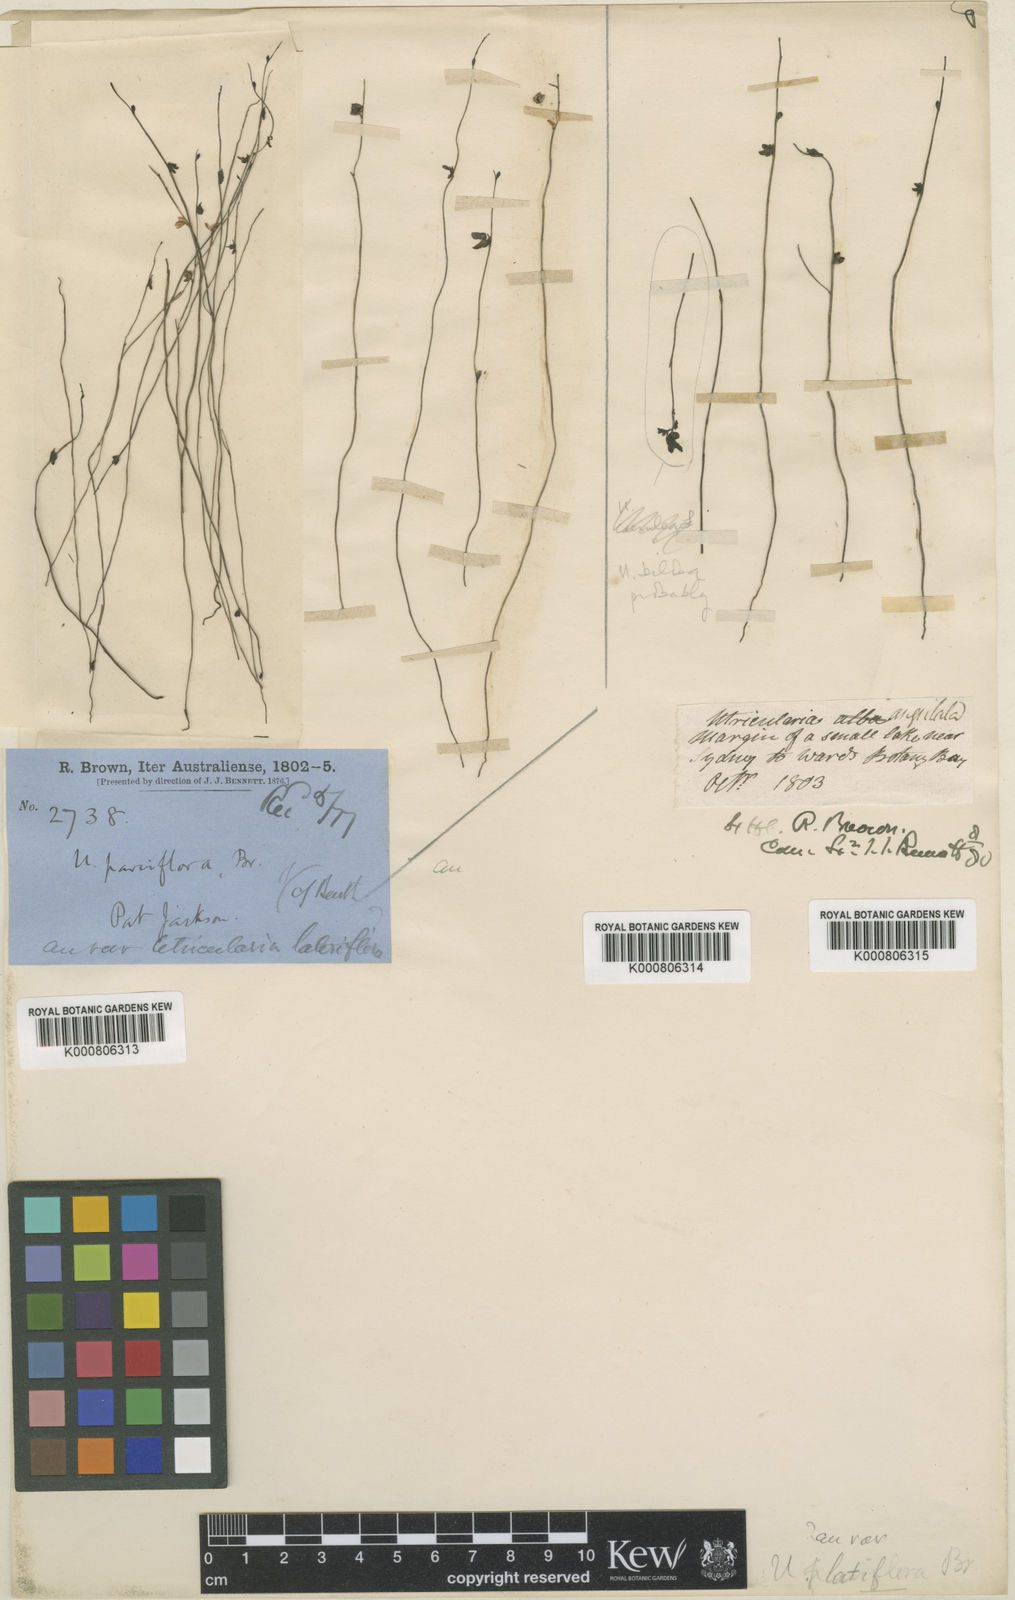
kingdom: Plantae
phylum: Tracheophyta
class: Magnoliopsida
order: Lamiales
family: Lentibulariaceae
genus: Utricularia
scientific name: Utricularia lateriflora
